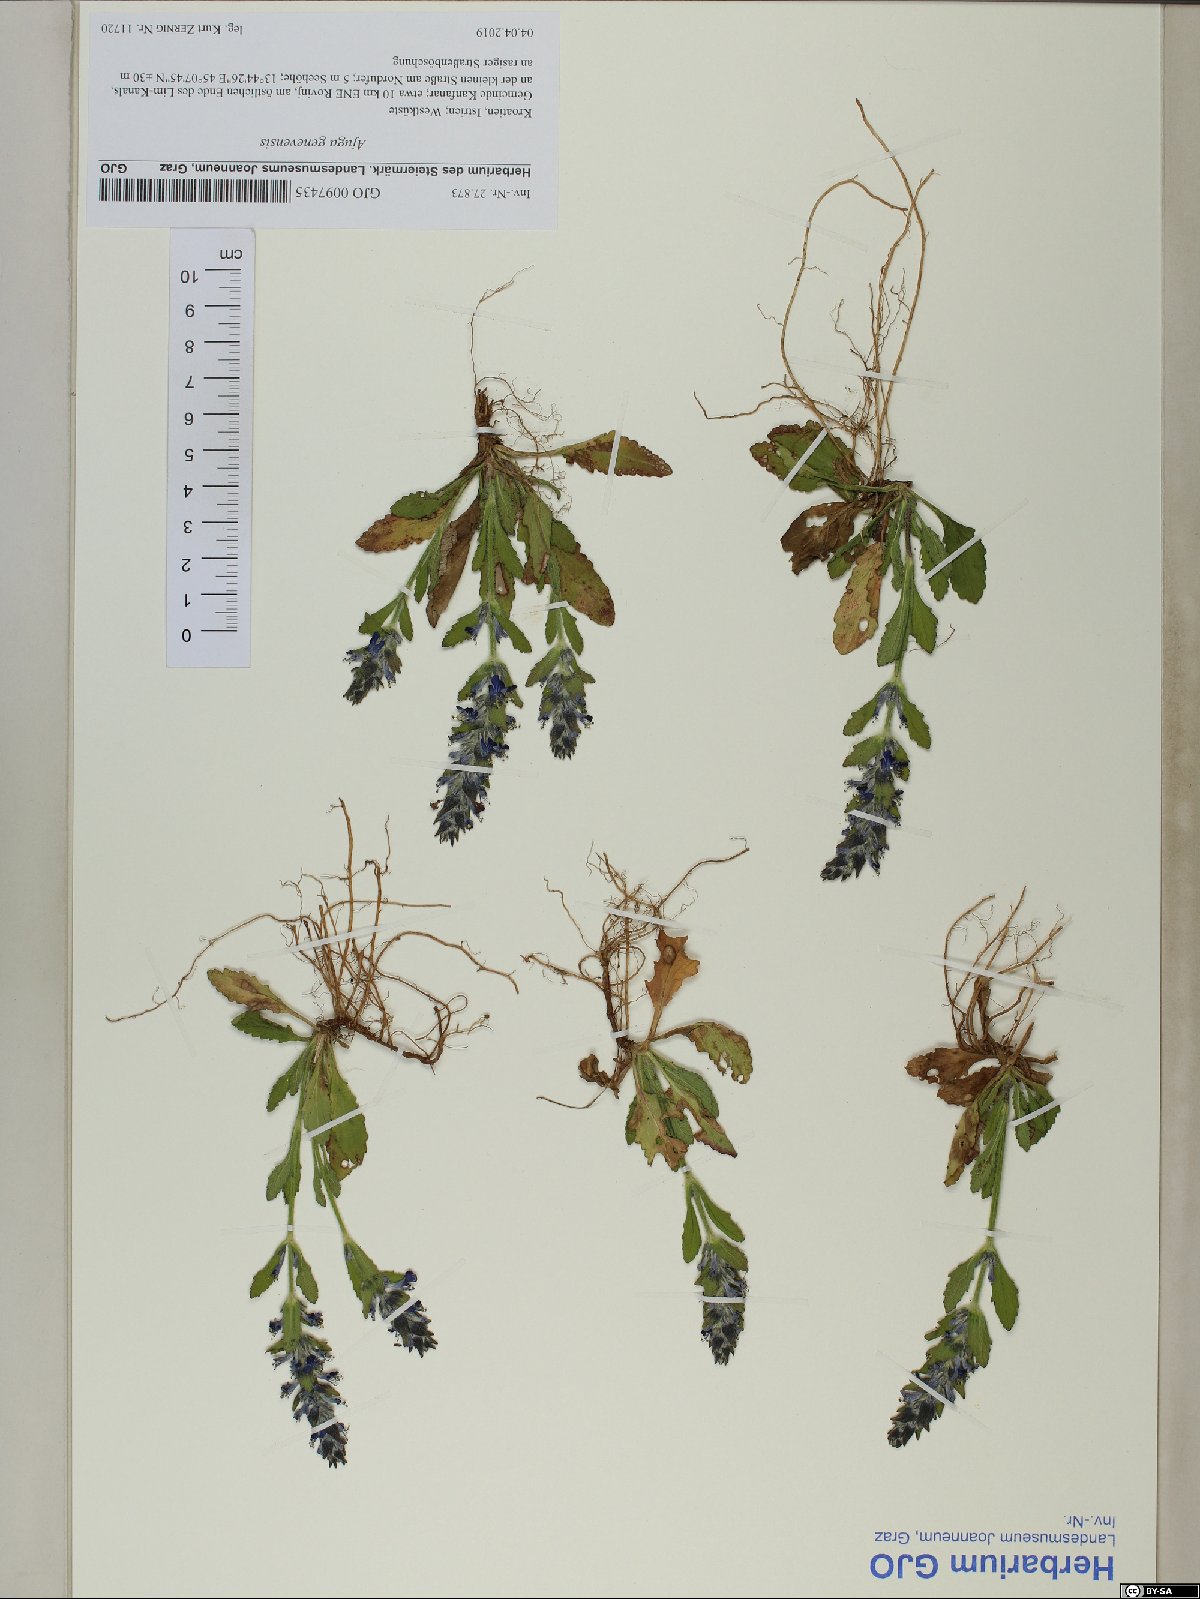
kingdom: Plantae
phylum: Tracheophyta
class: Magnoliopsida
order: Lamiales
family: Lamiaceae
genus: Ajuga
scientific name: Ajuga genevensis
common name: Blue bugle
